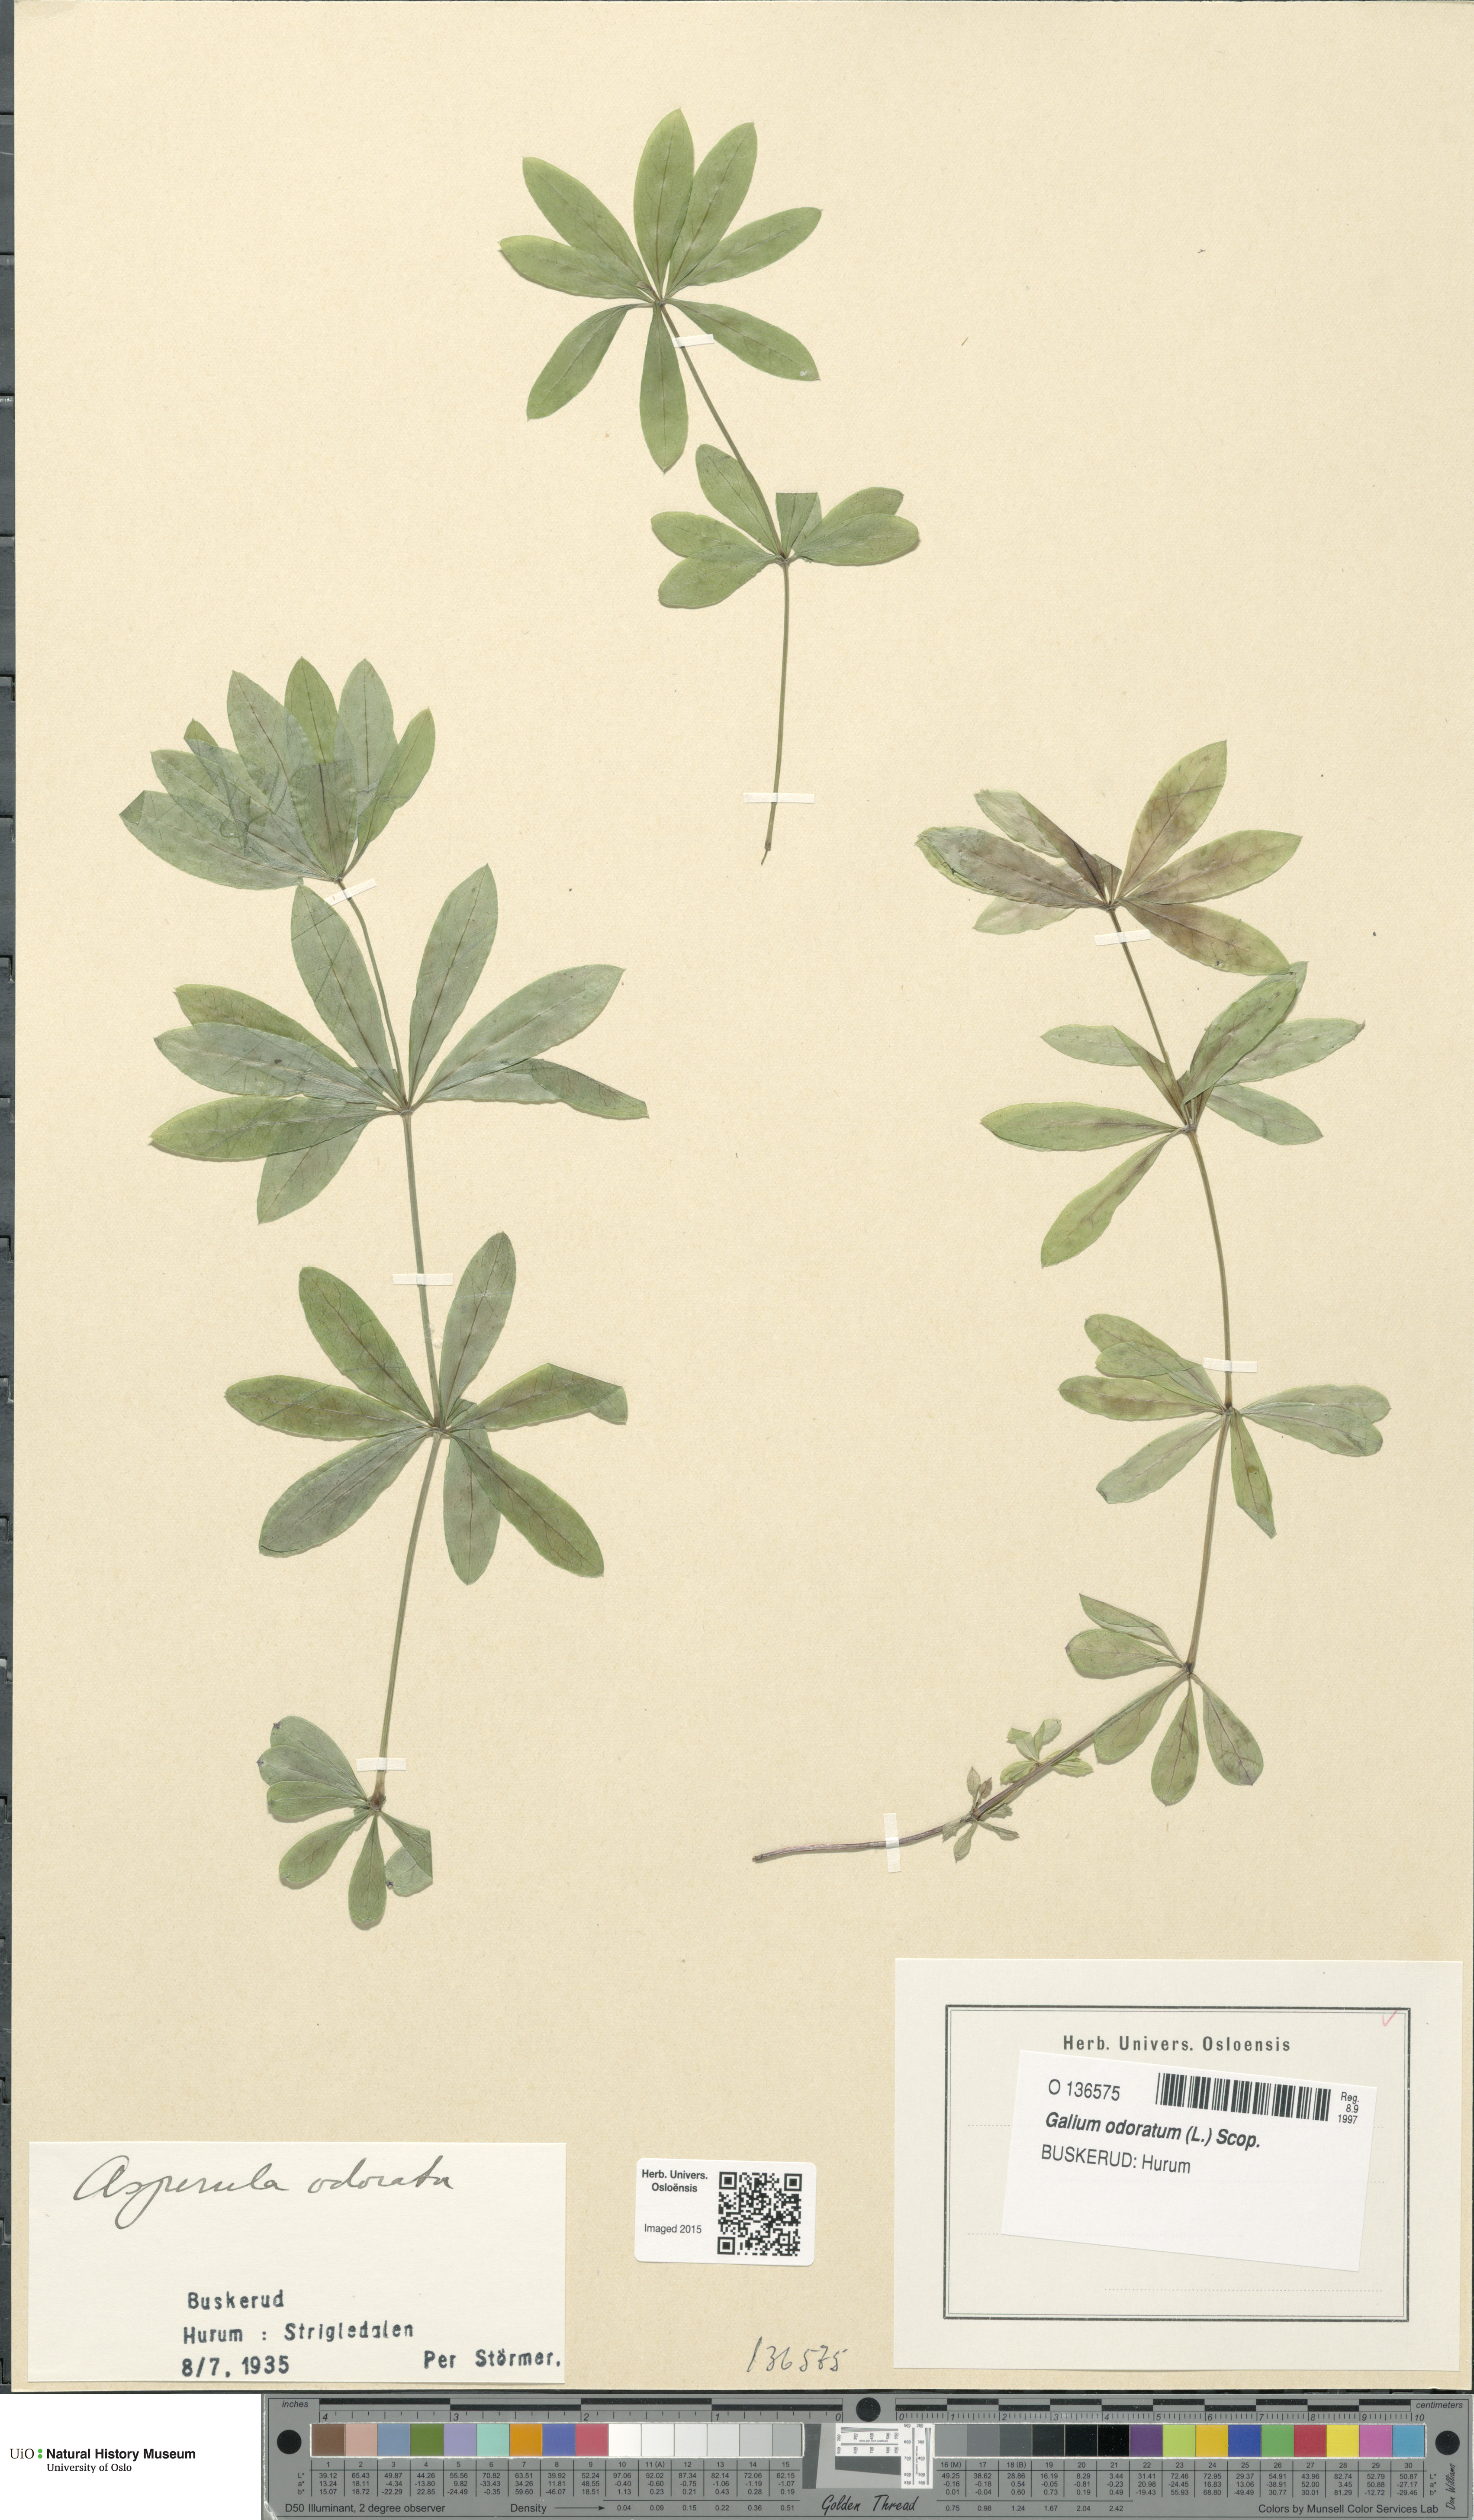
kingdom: Plantae
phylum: Tracheophyta
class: Magnoliopsida
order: Gentianales
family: Rubiaceae
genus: Galium
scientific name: Galium odoratum
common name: Sweet woodruff
